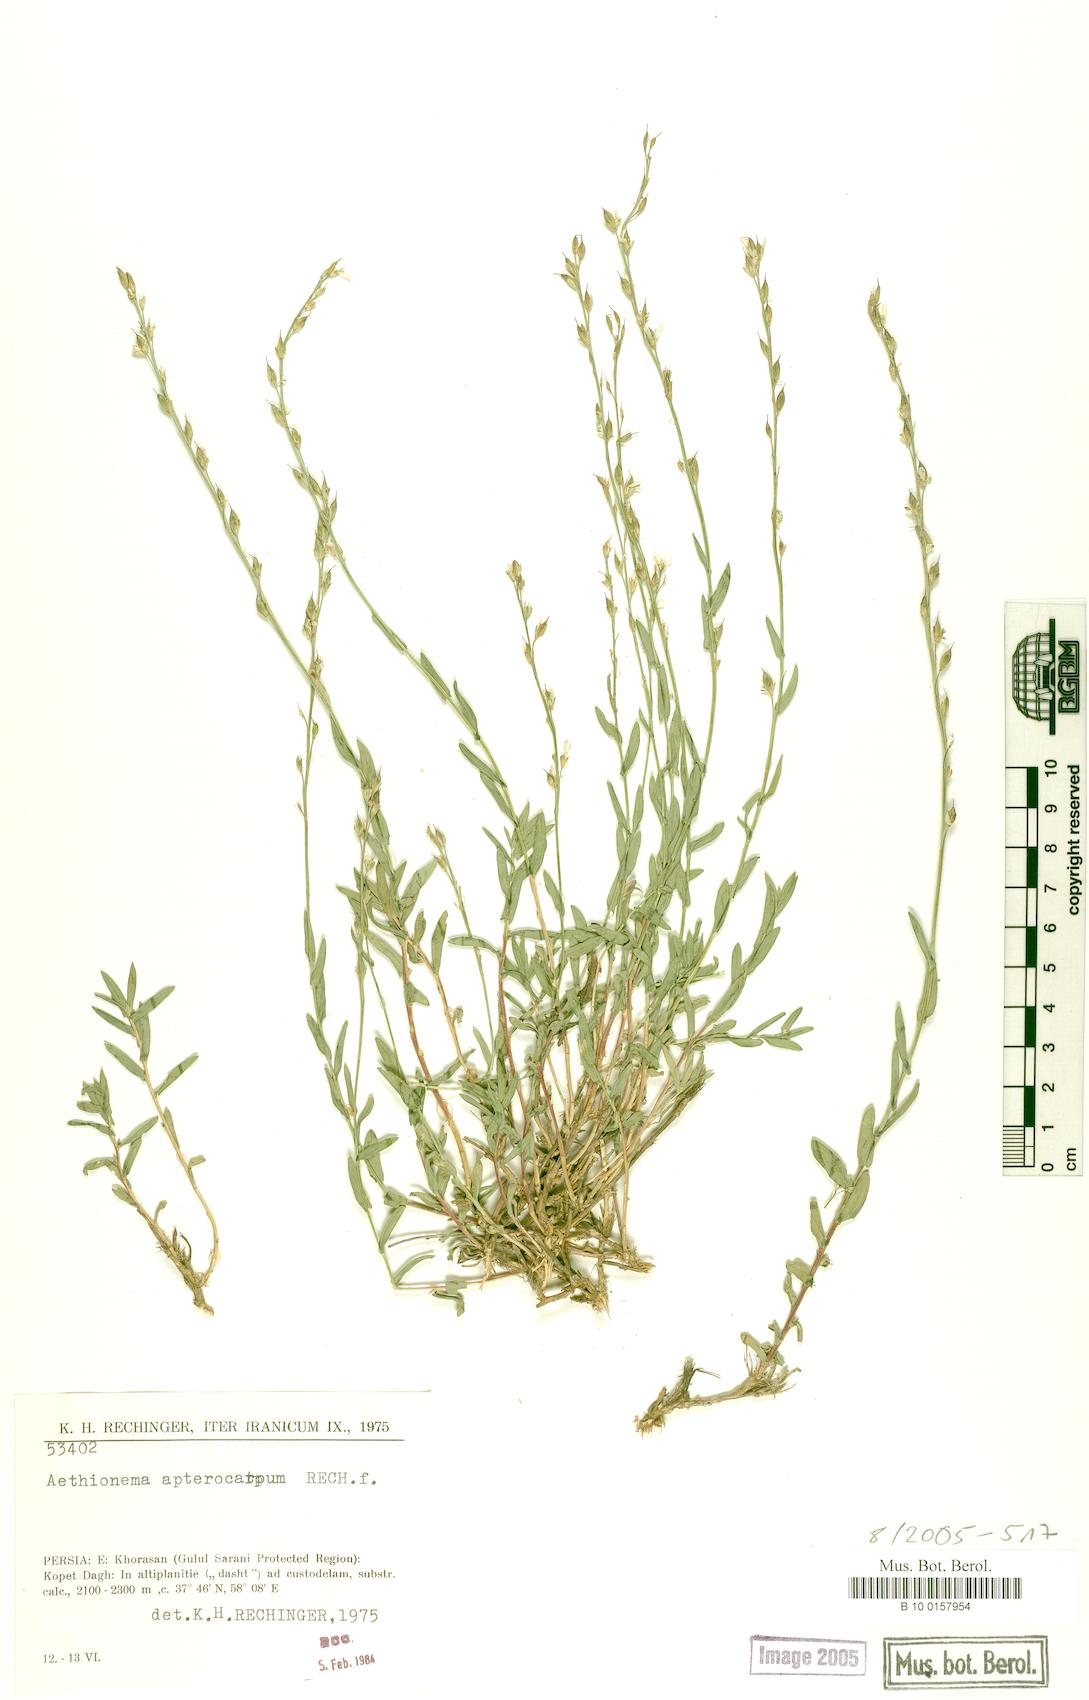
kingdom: Plantae
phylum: Tracheophyta
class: Magnoliopsida
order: Brassicales
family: Brassicaceae
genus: Noccaea
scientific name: Noccaea apterocarpa
